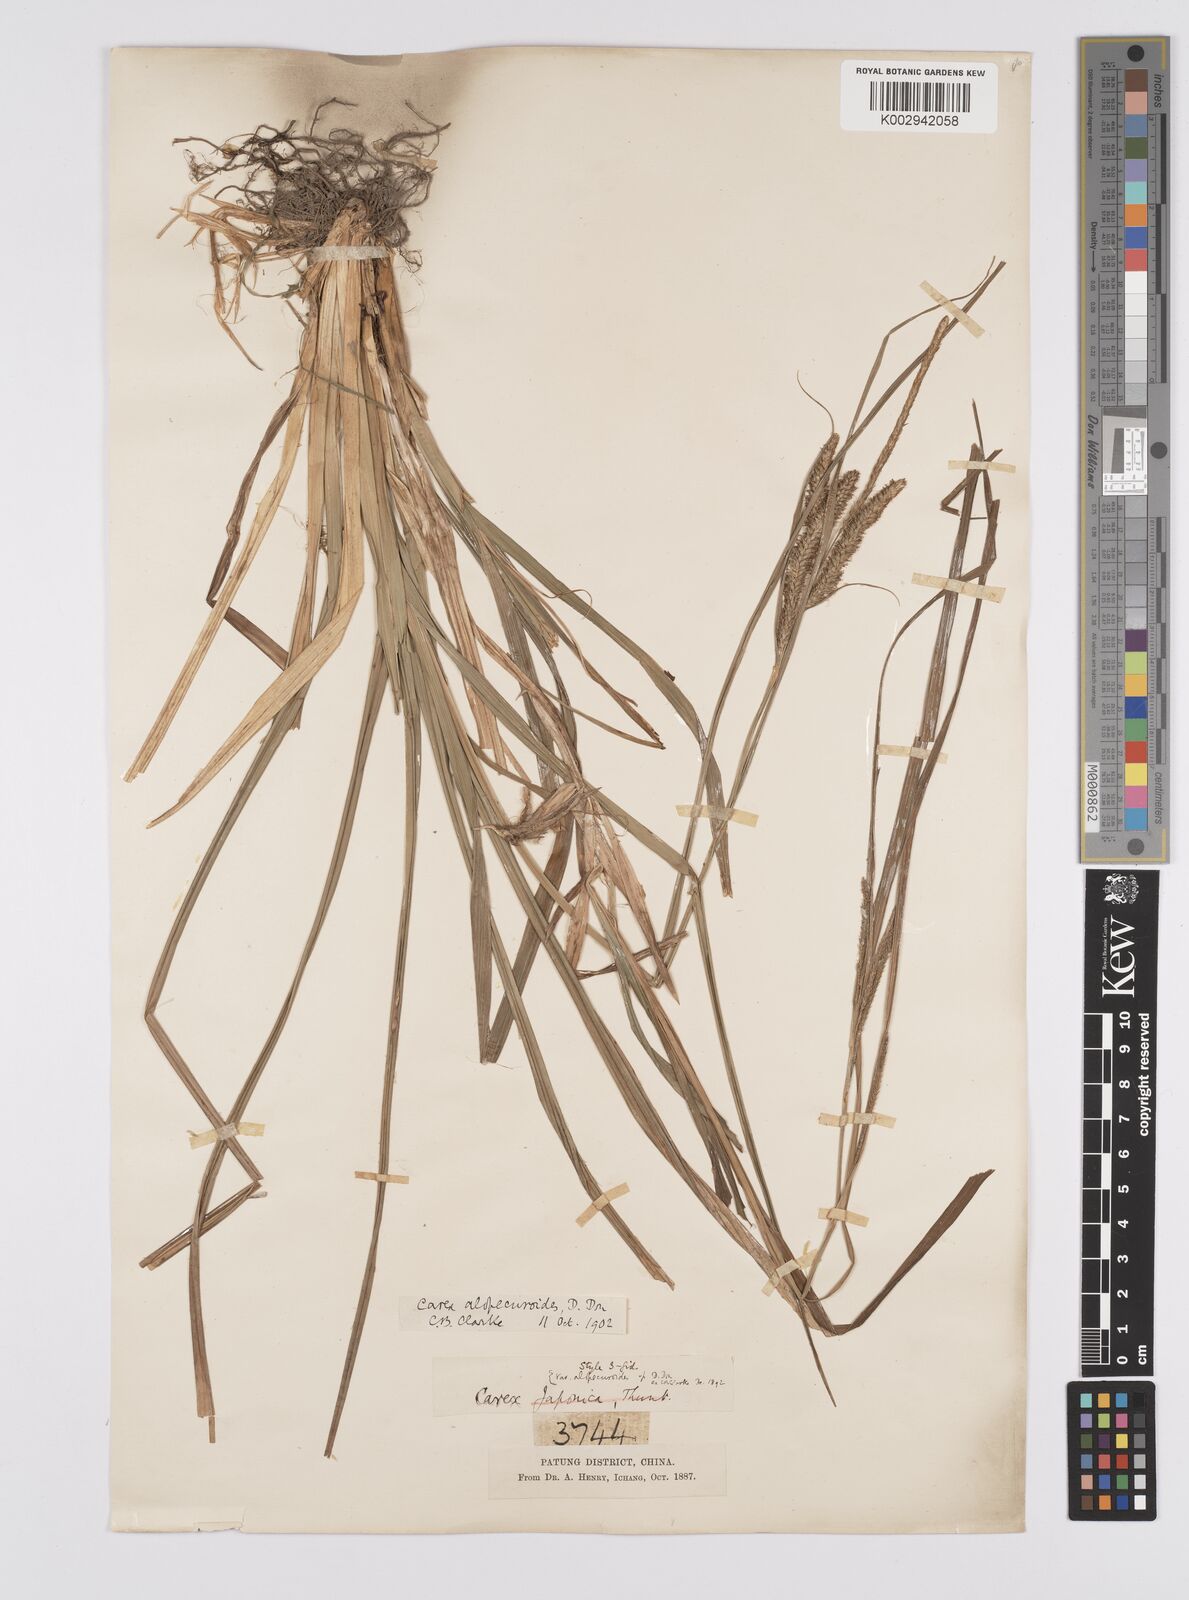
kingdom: Plantae
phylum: Tracheophyta
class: Liliopsida
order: Poales
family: Cyperaceae
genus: Carex
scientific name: Carex japonica
